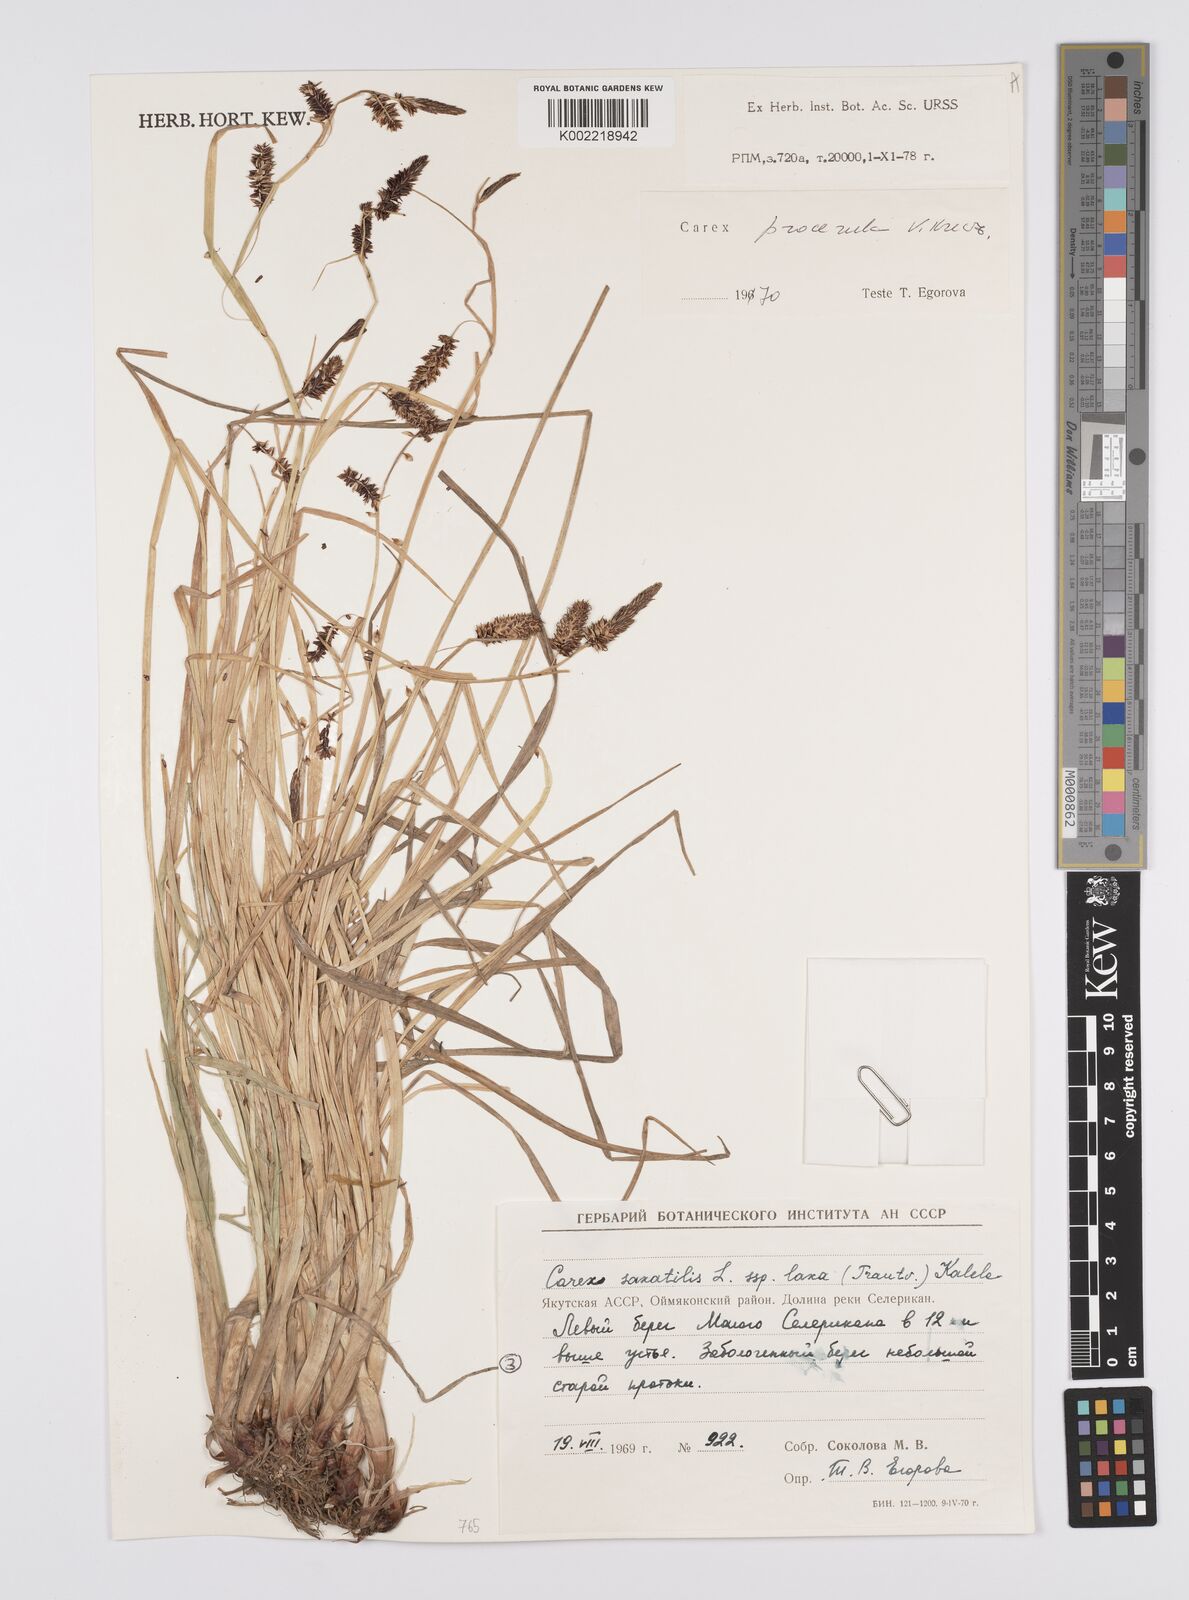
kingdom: Plantae
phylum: Tracheophyta
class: Liliopsida
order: Poales
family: Cyperaceae
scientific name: Cyperaceae
